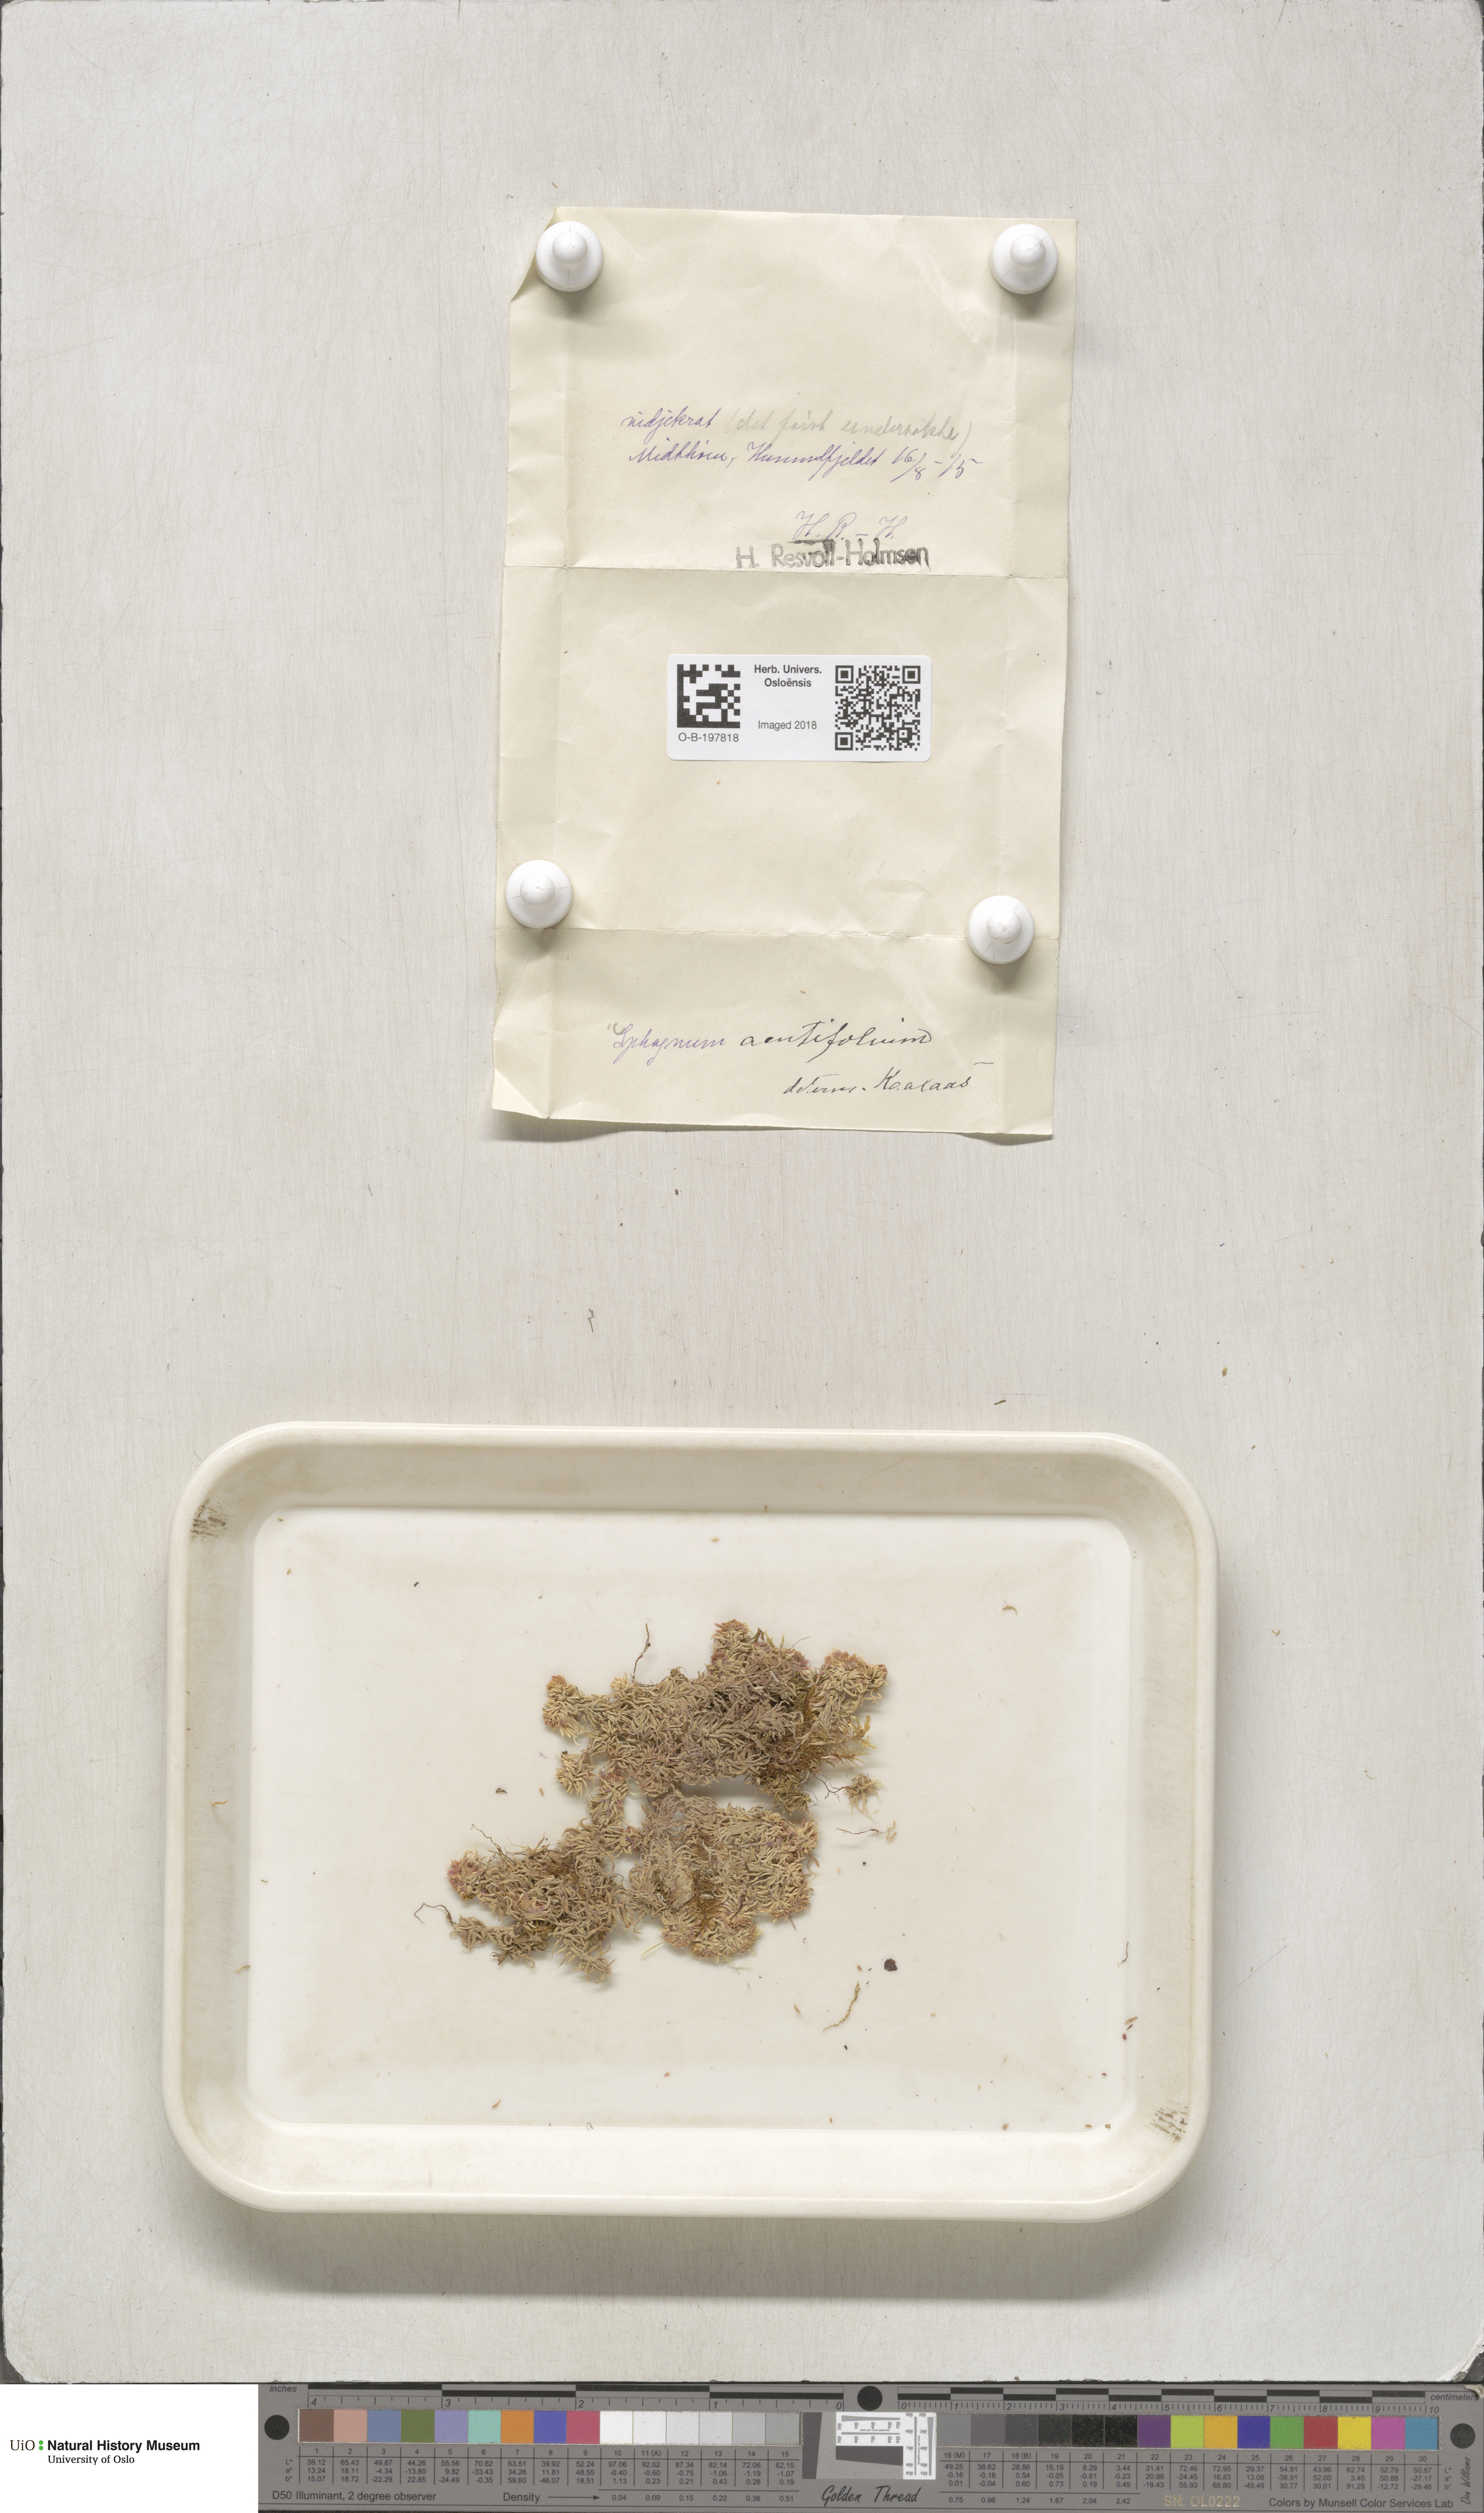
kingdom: Plantae
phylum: Bryophyta
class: Sphagnopsida
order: Sphagnales
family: Sphagnaceae
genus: Sphagnum
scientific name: Sphagnum capillifolium
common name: Small red peat moss
